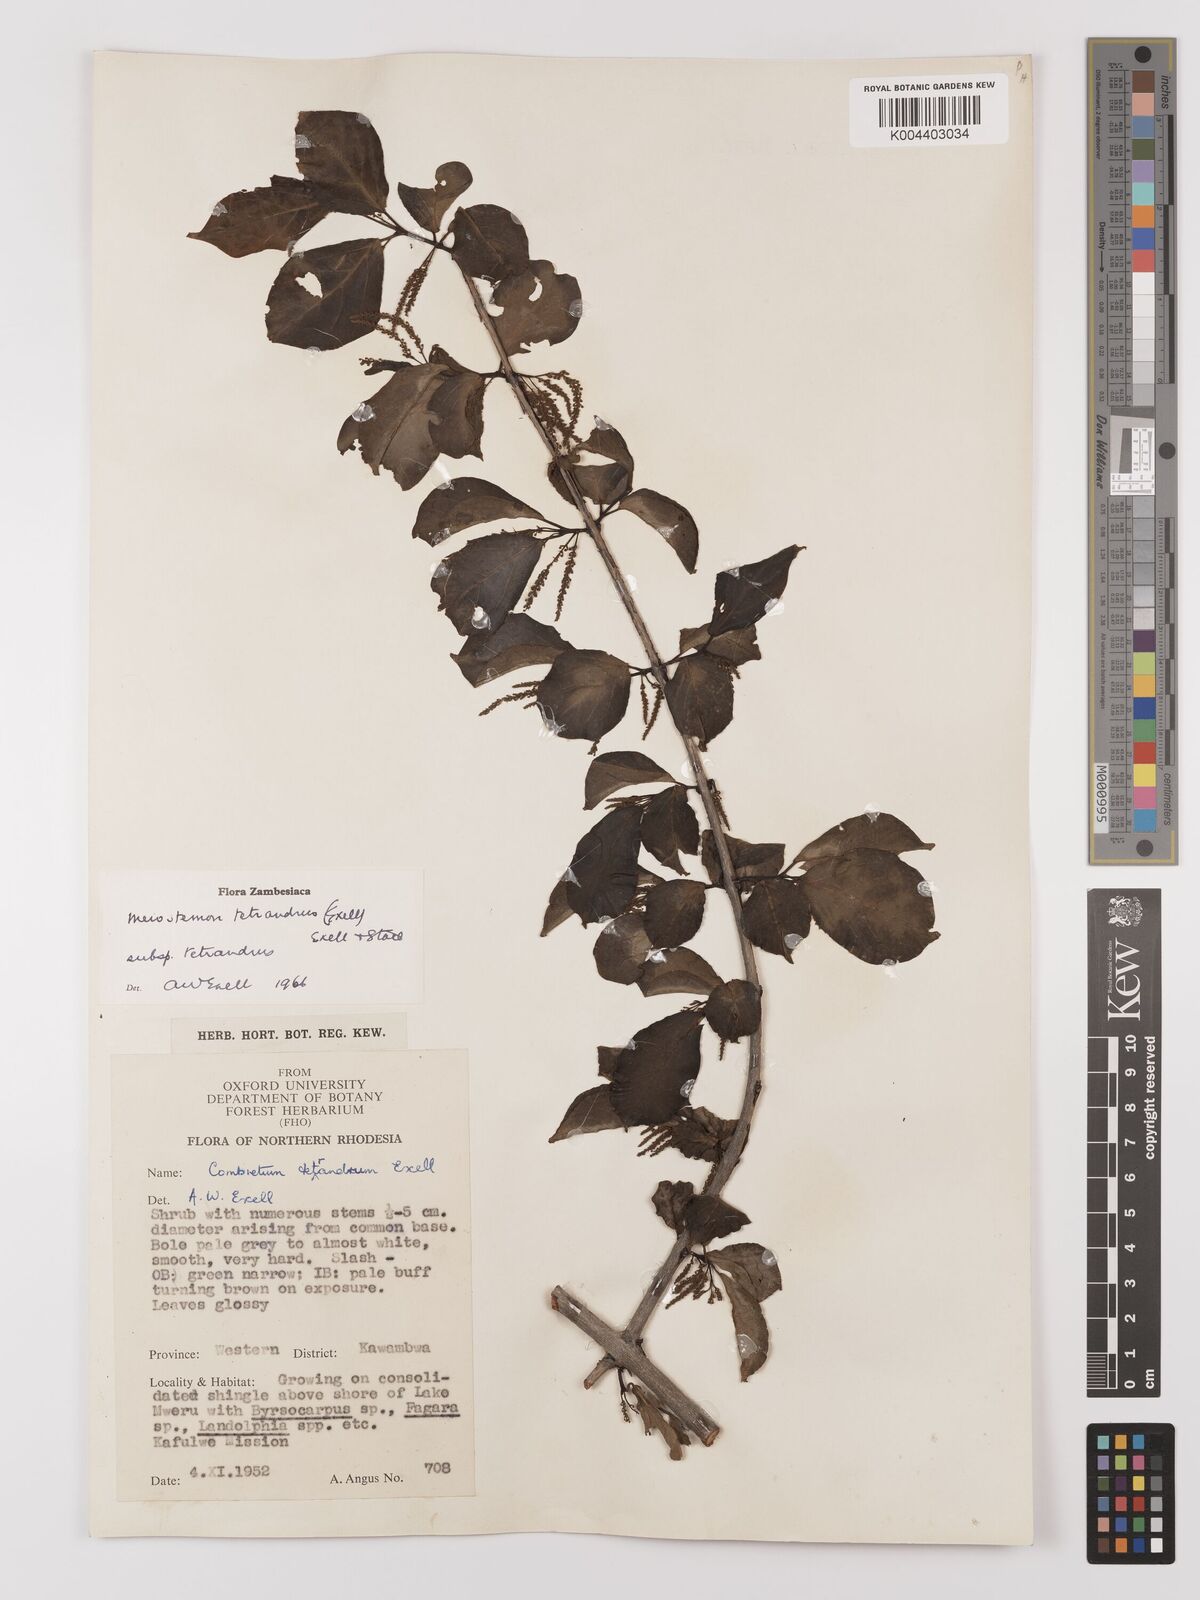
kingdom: Plantae
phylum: Tracheophyta
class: Magnoliopsida
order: Myrtales
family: Combretaceae
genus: Combretum
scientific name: Combretum tetrandrum
